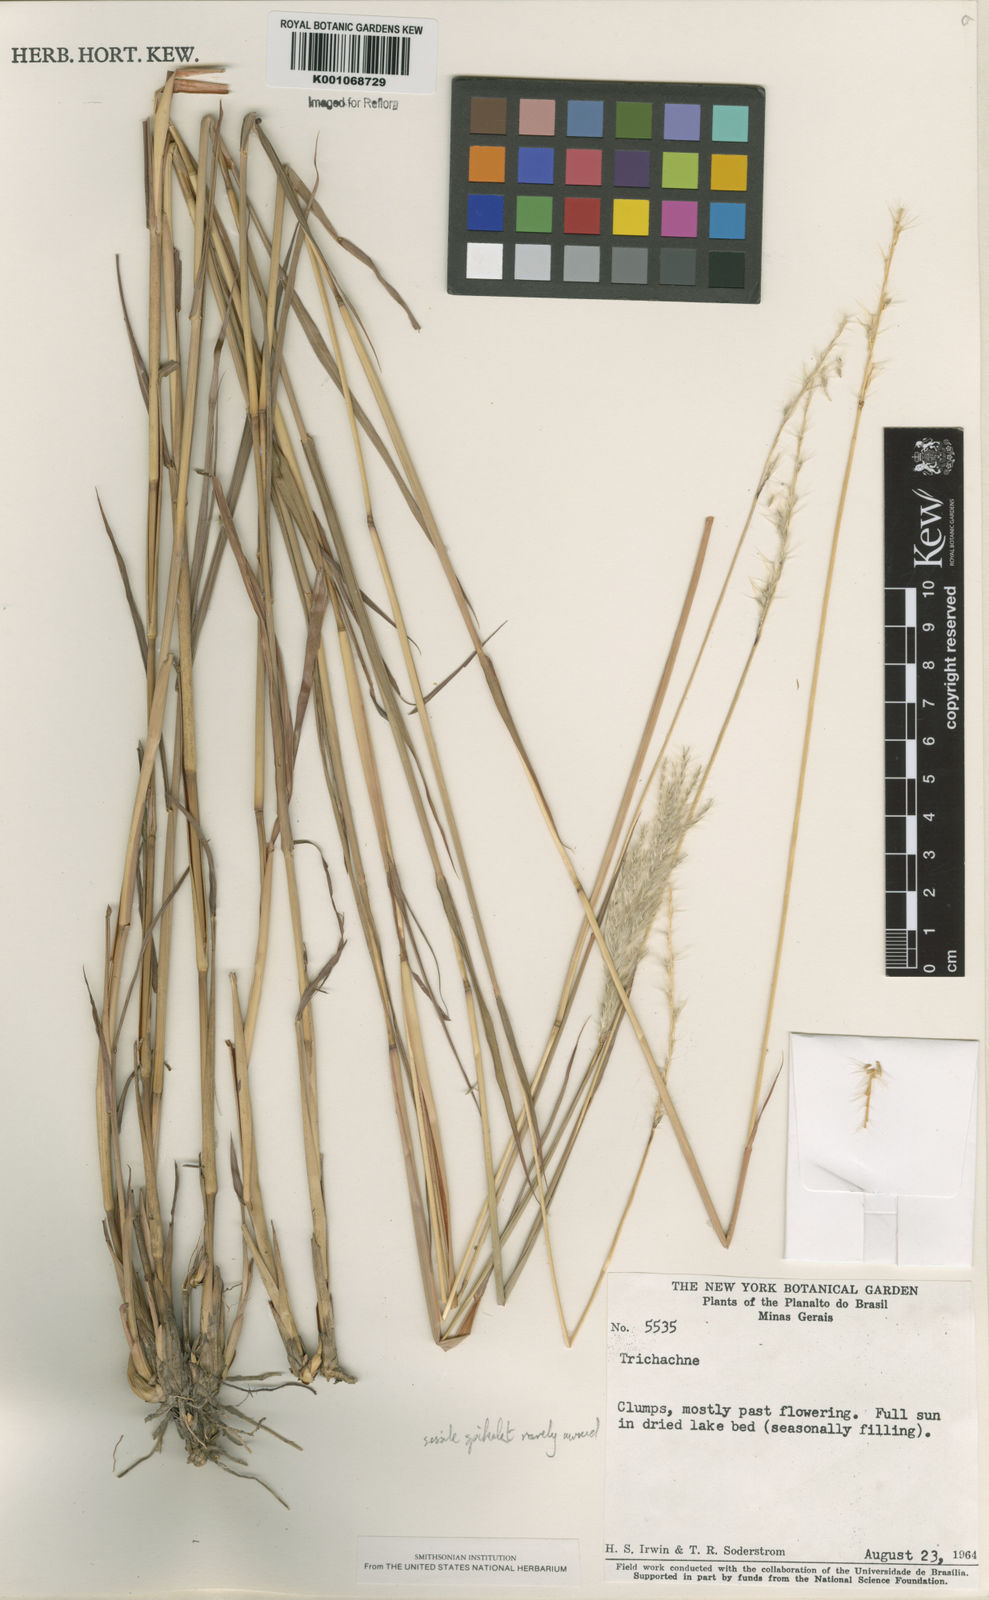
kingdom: Plantae
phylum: Tracheophyta
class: Liliopsida
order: Poales
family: Poaceae
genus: Bothriochloa
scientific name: Bothriochloa laguroides
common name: Silver bluestem
